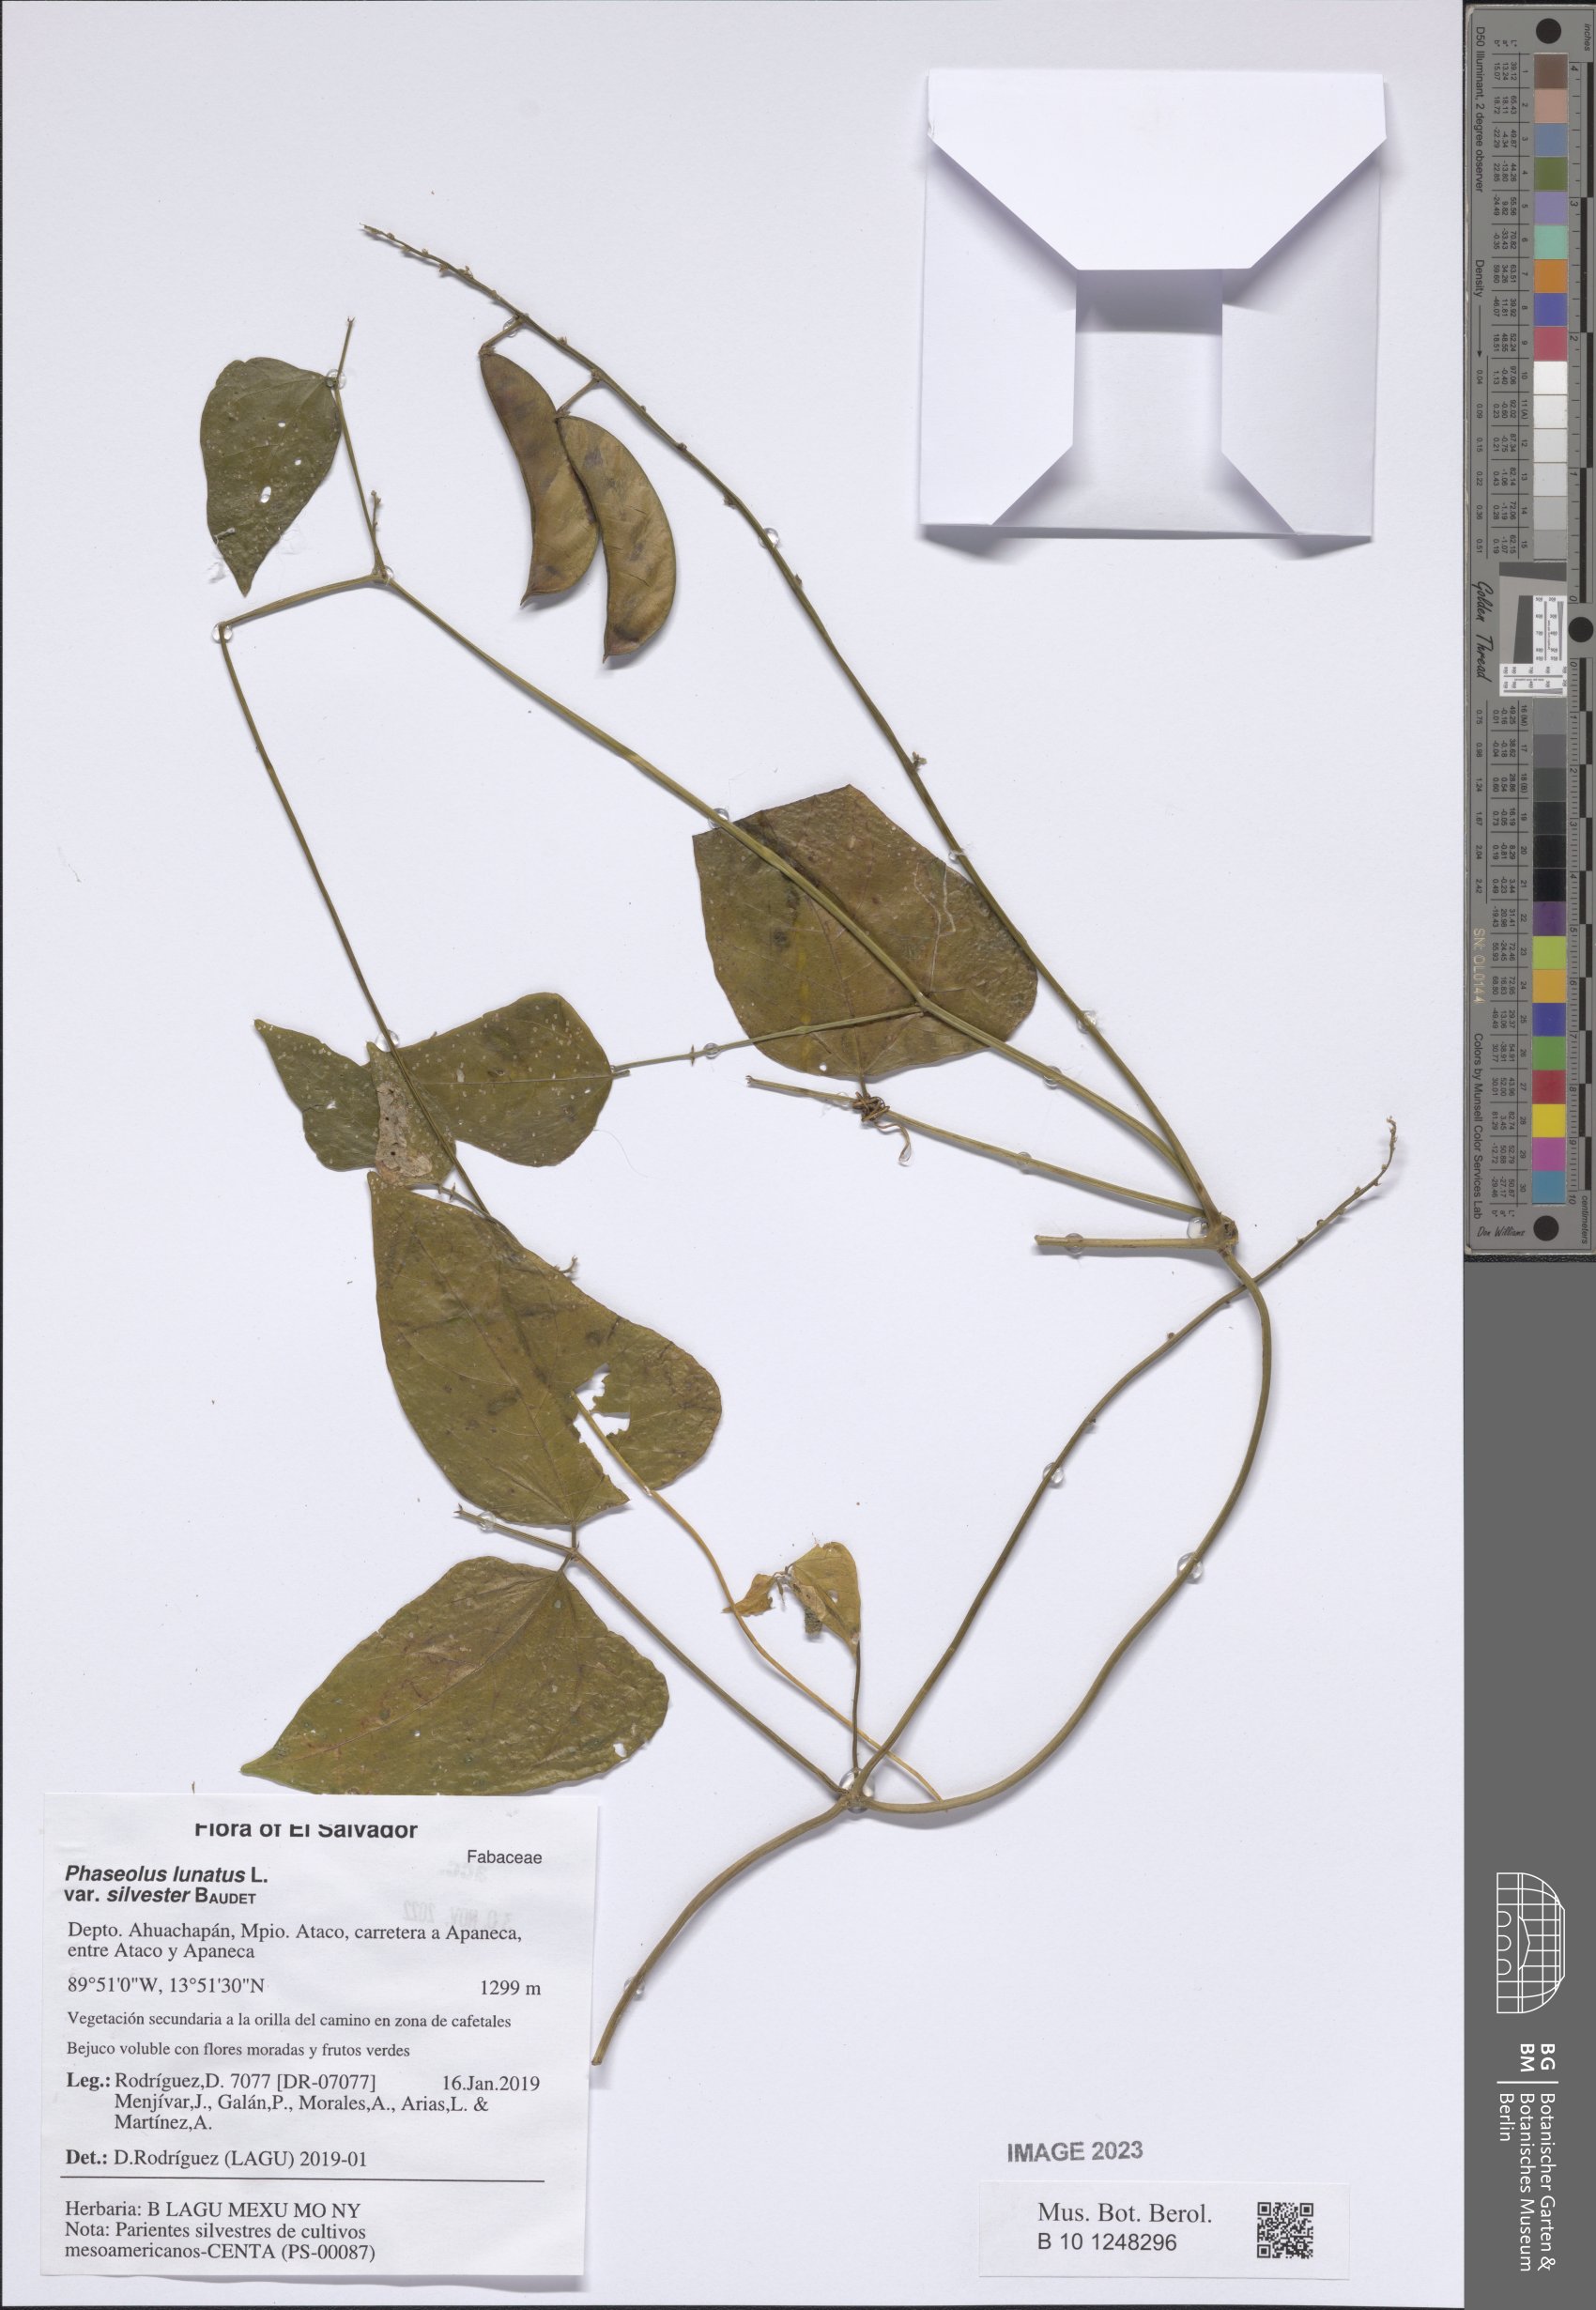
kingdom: Plantae
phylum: Tracheophyta
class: Magnoliopsida
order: Fabales
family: Fabaceae
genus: Phaseolus
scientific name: Phaseolus lunatus
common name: Sieva bean
